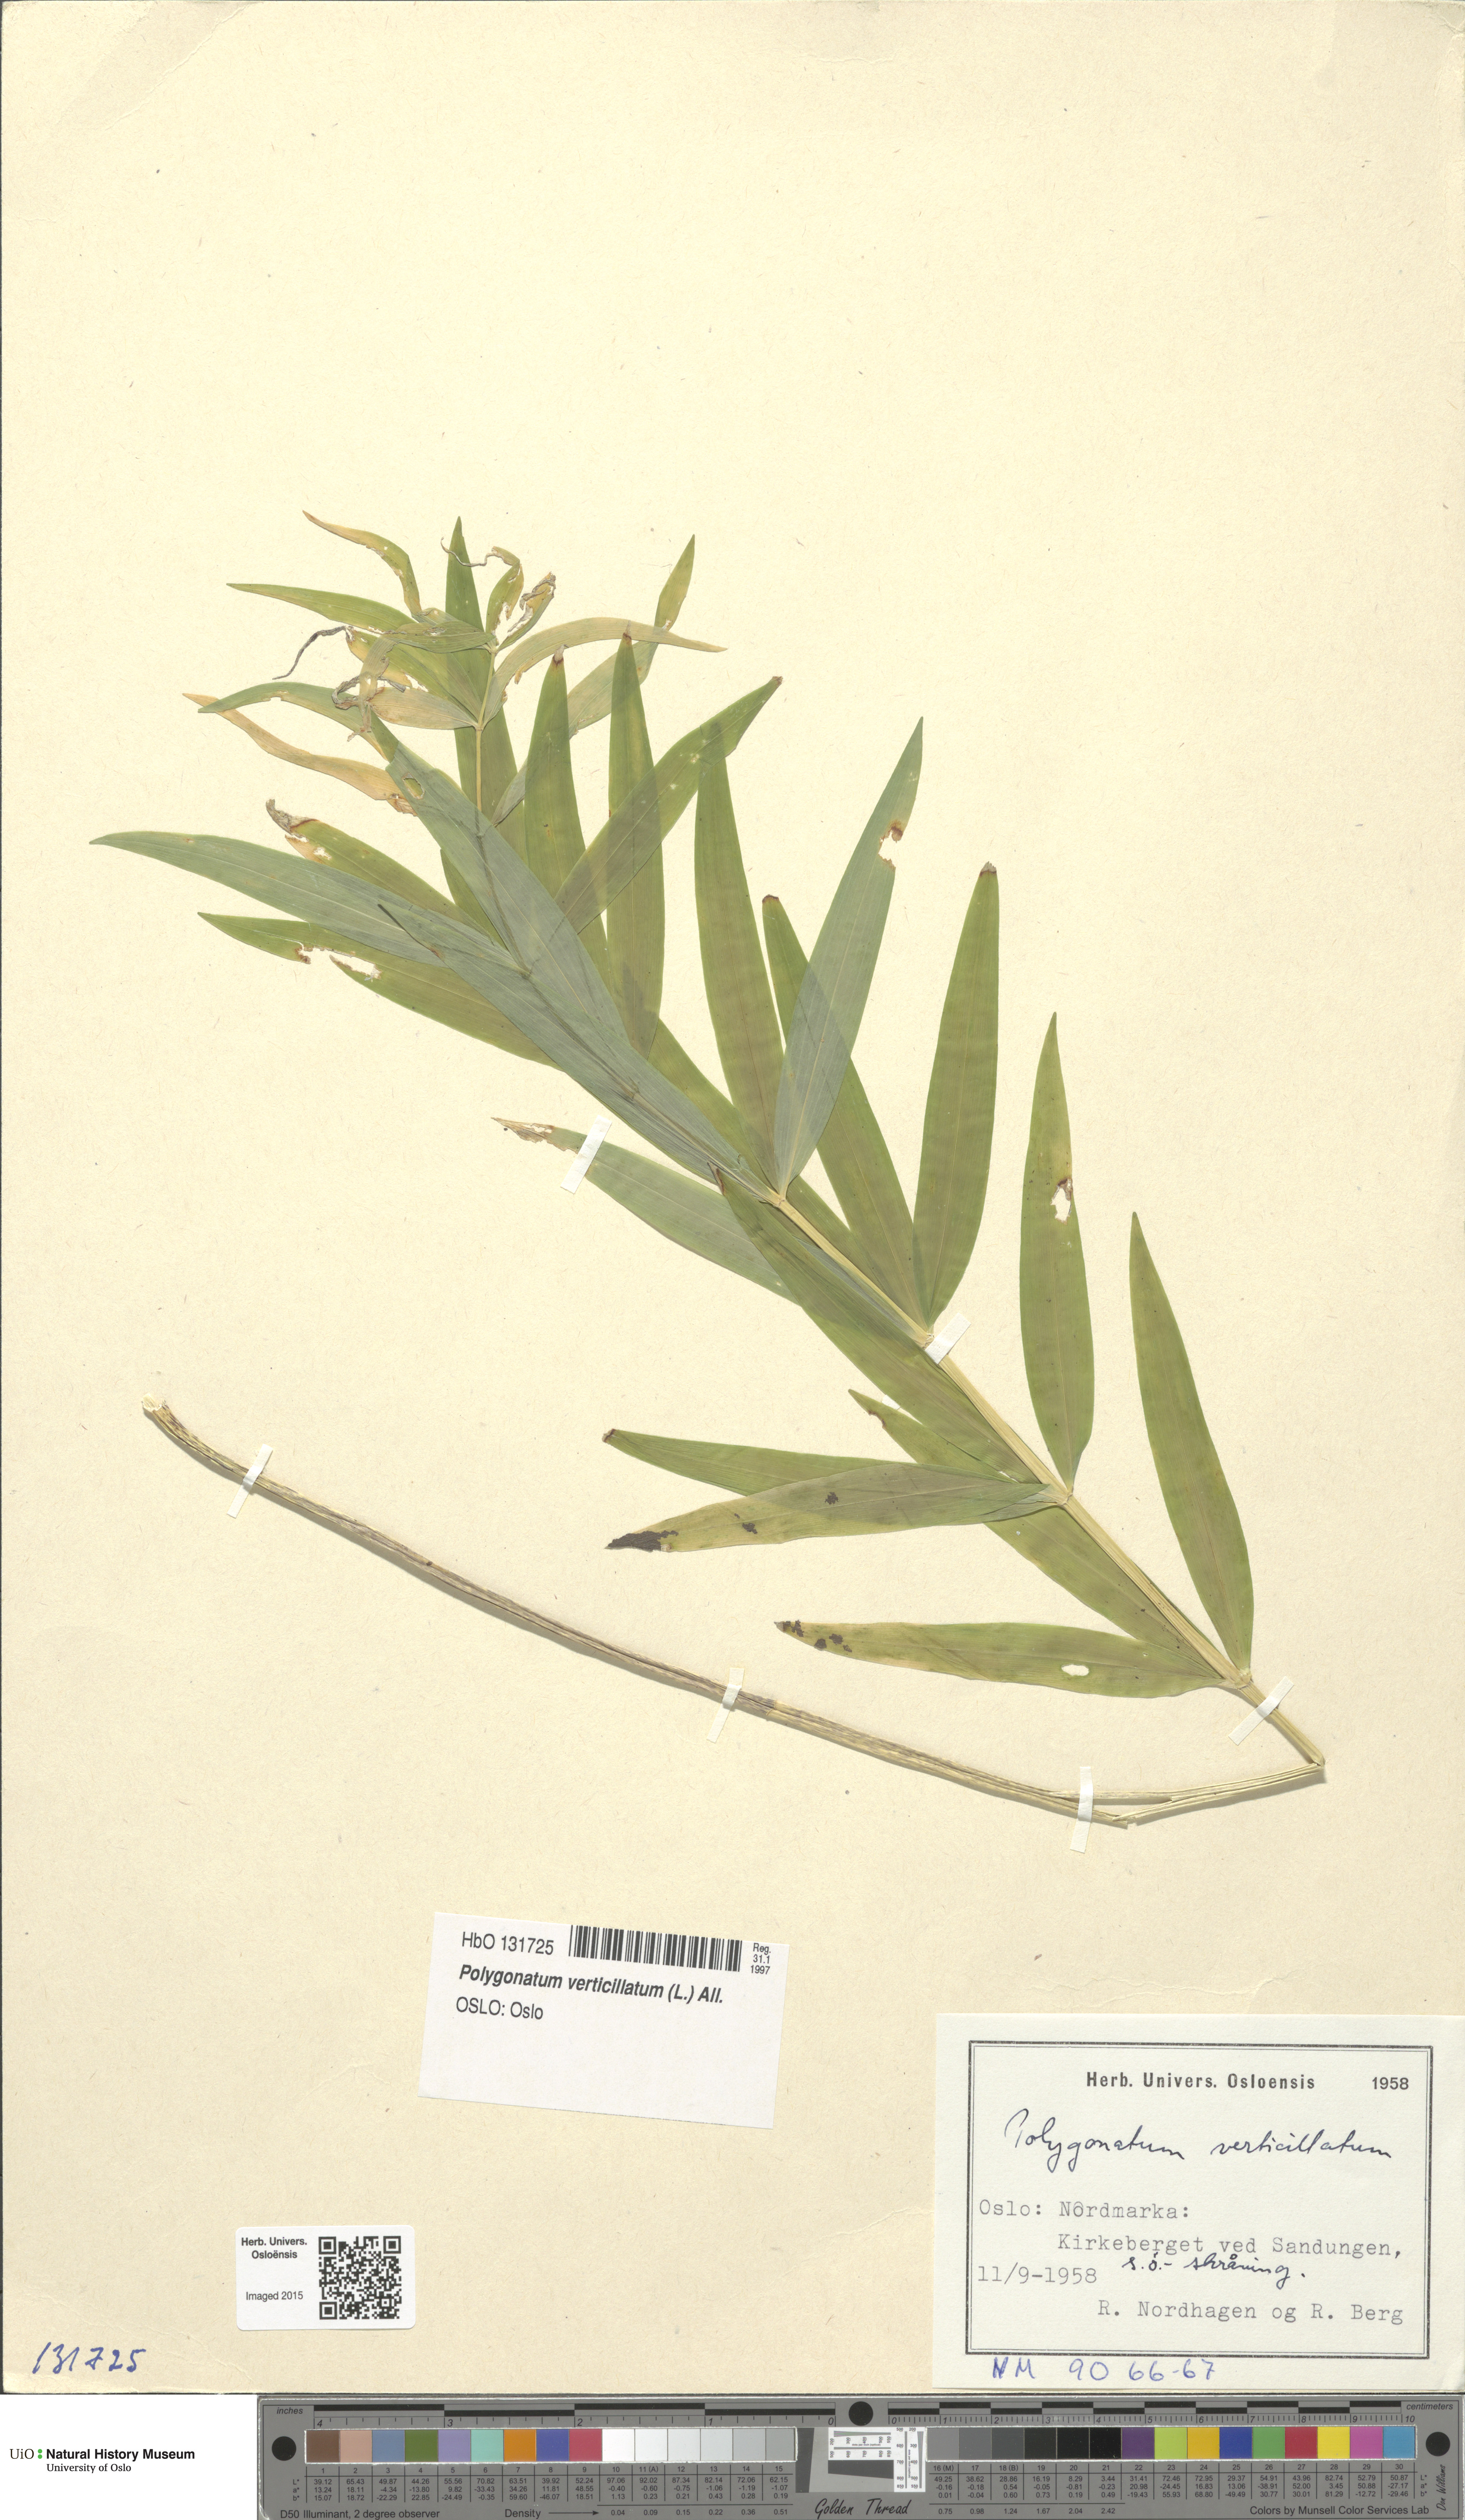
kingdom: Plantae
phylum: Tracheophyta
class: Liliopsida
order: Asparagales
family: Asparagaceae
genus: Polygonatum
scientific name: Polygonatum verticillatum
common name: Whorled solomon's-seal
